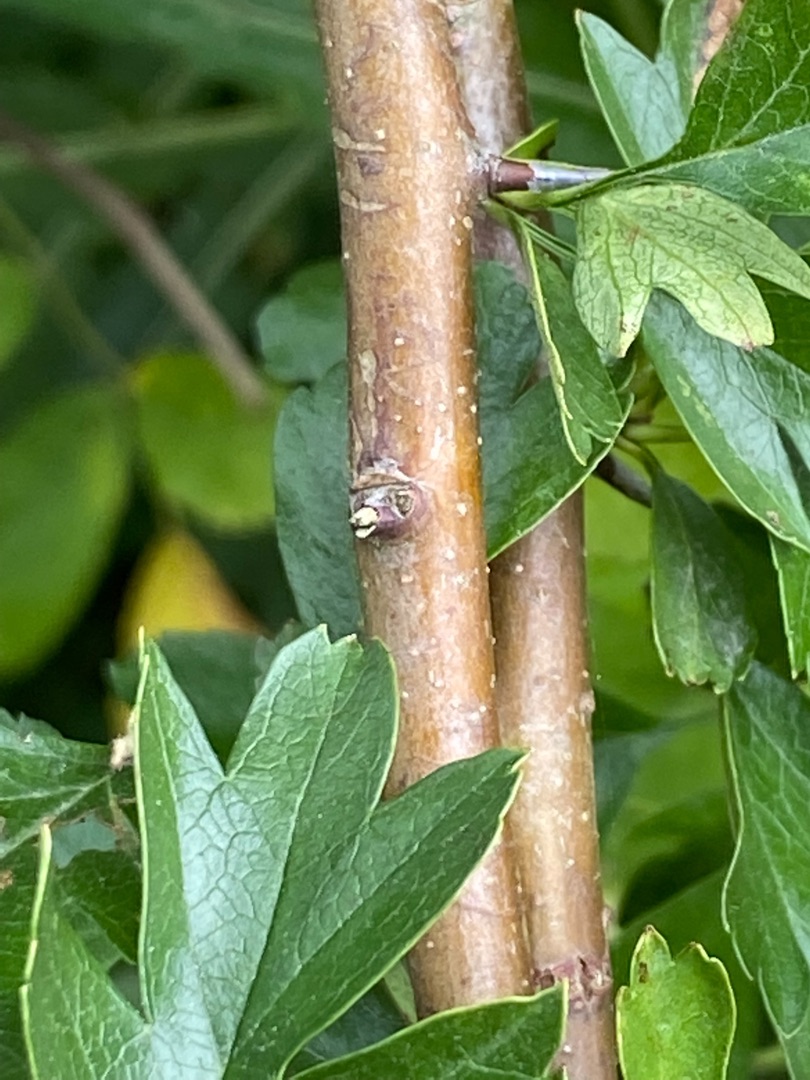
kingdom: Plantae
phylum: Tracheophyta
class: Magnoliopsida
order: Rosales
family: Rosaceae
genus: Crataegus
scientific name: Crataegus monogyna
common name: Engriflet hvidtjørn
